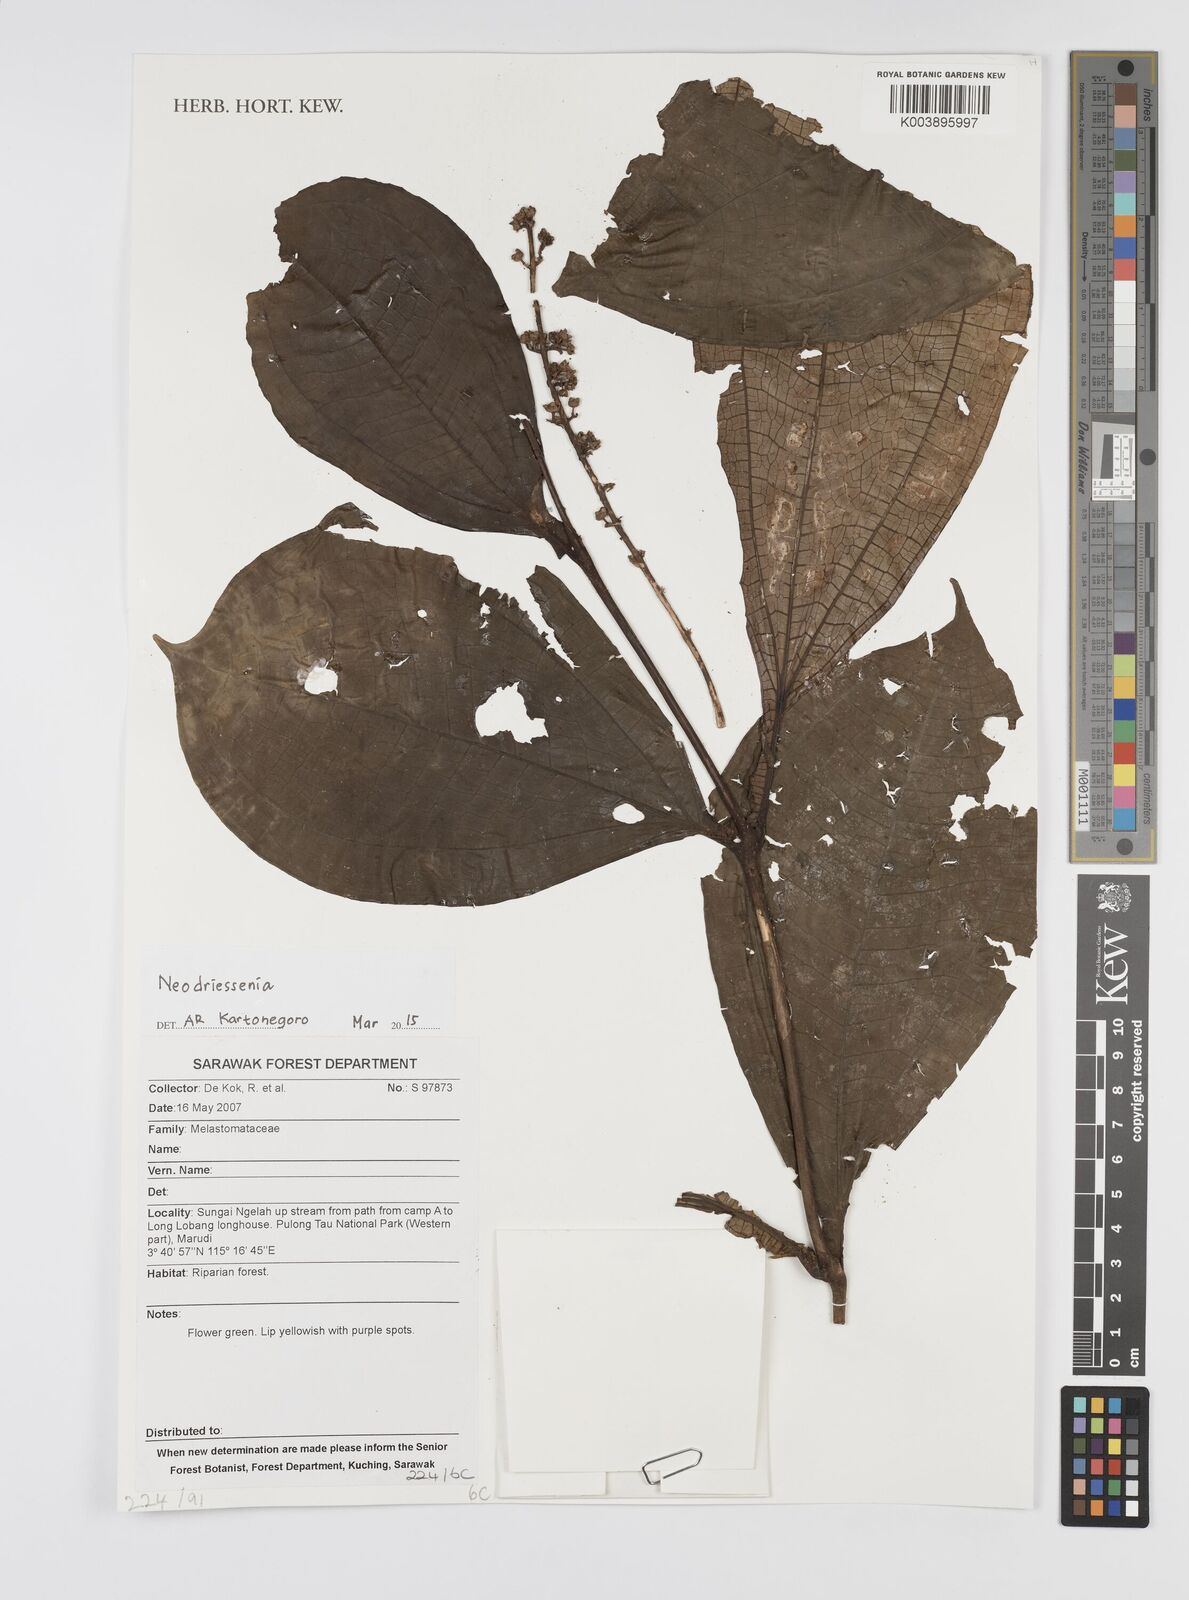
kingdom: Plantae
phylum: Tracheophyta
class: Magnoliopsida
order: Myrtales
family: Melastomataceae
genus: Neodriessenia
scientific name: Neodriessenia
